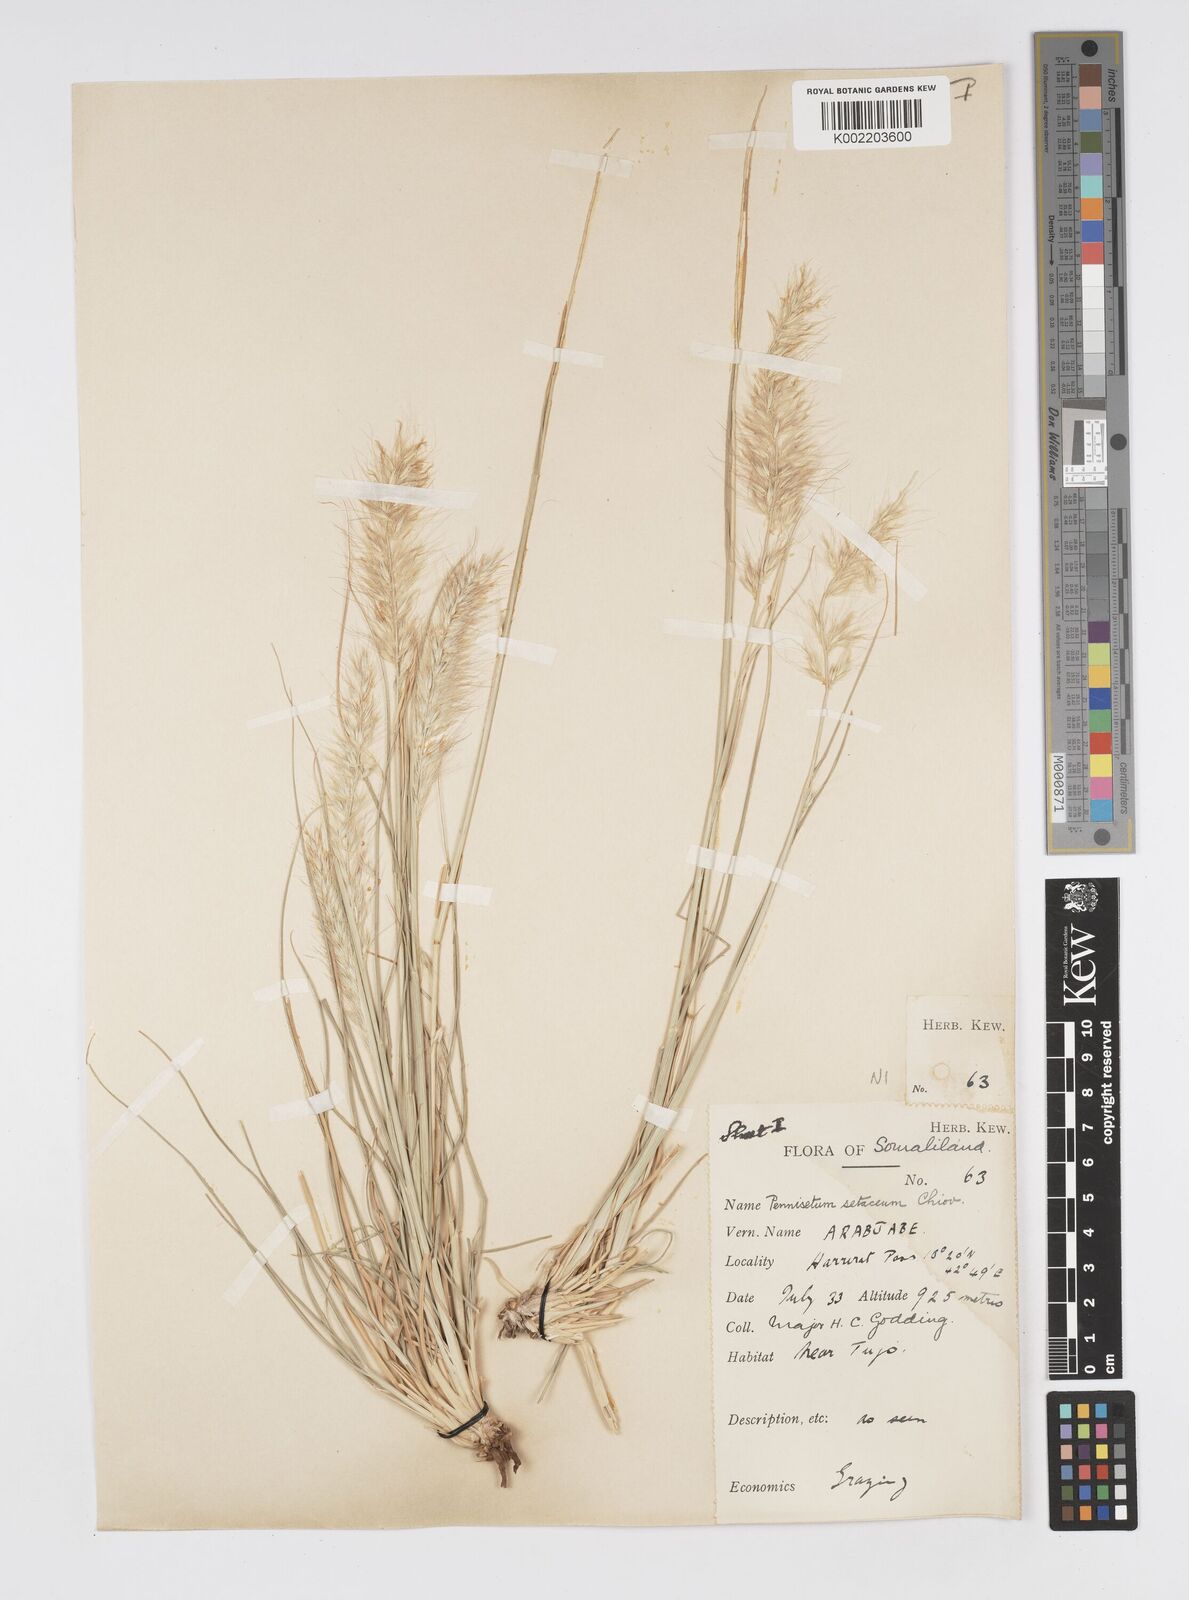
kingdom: Plantae
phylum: Tracheophyta
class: Liliopsida
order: Poales
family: Poaceae
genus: Cenchrus
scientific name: Cenchrus setaceus
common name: Crimson fountaingrass
